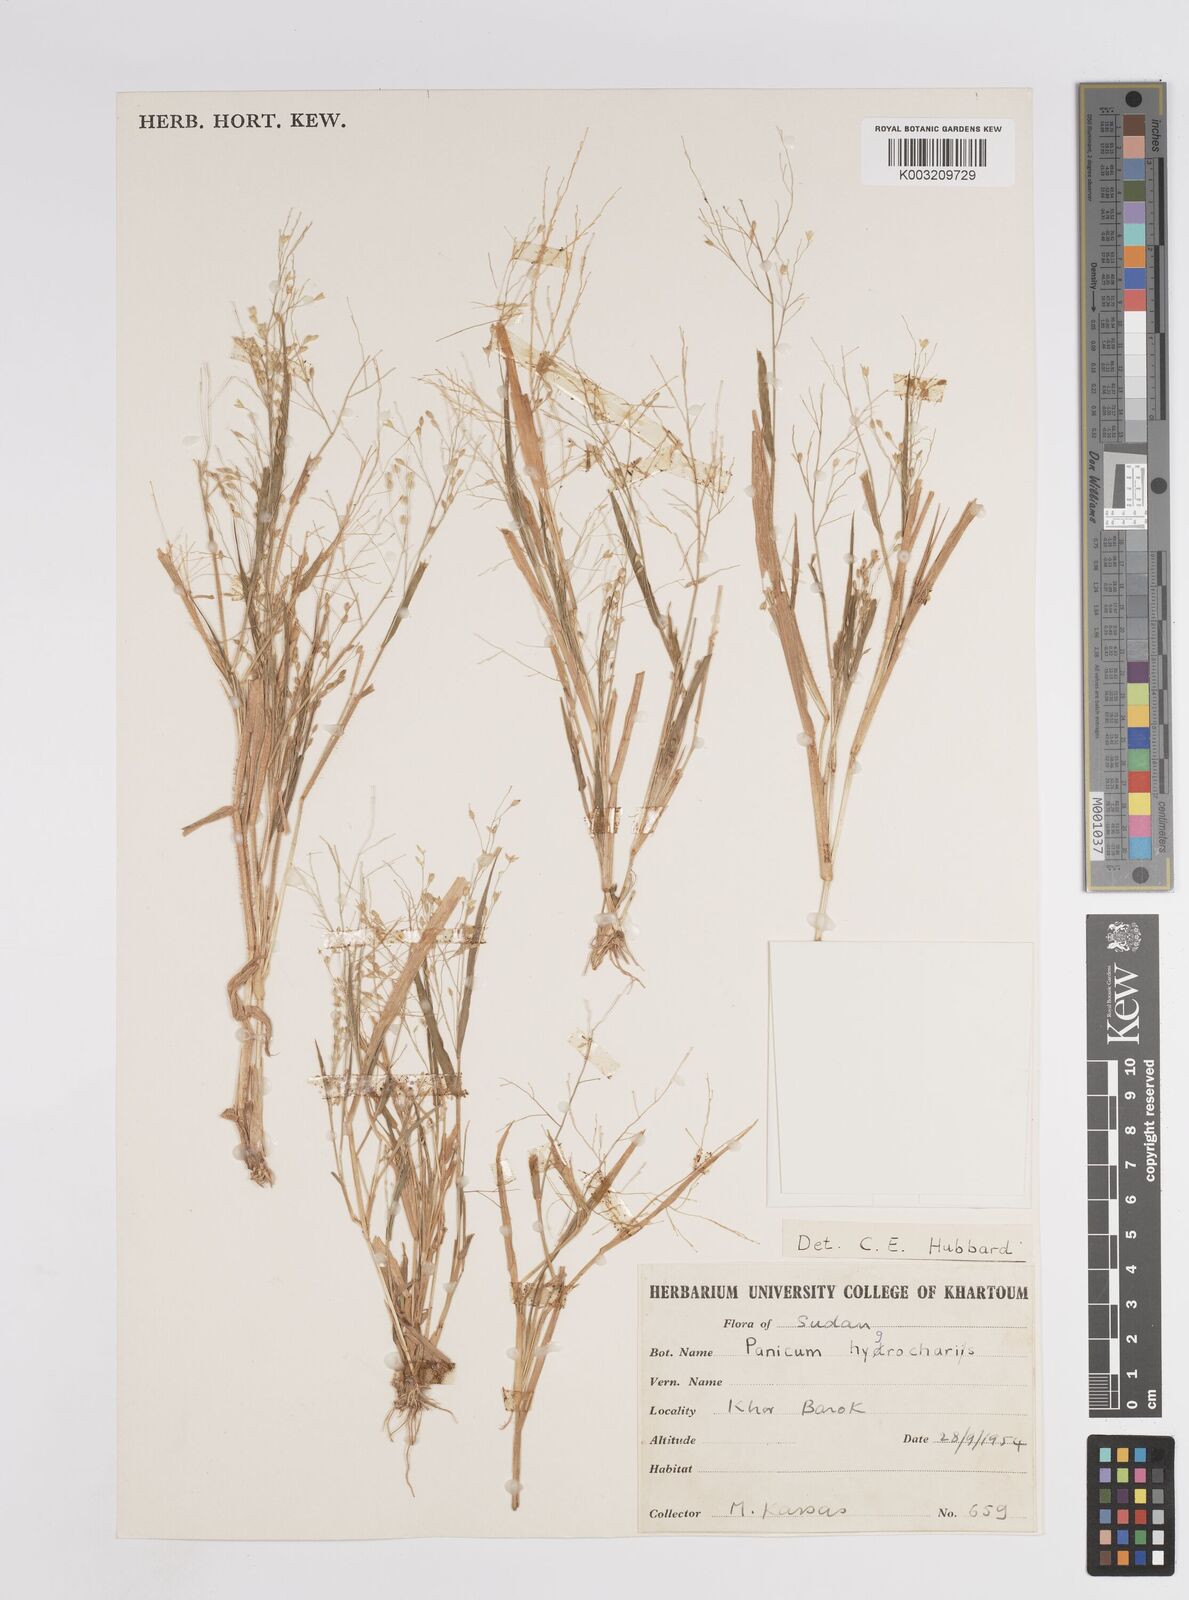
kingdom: Plantae
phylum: Tracheophyta
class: Liliopsida
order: Poales
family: Poaceae
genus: Panicum
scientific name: Panicum
